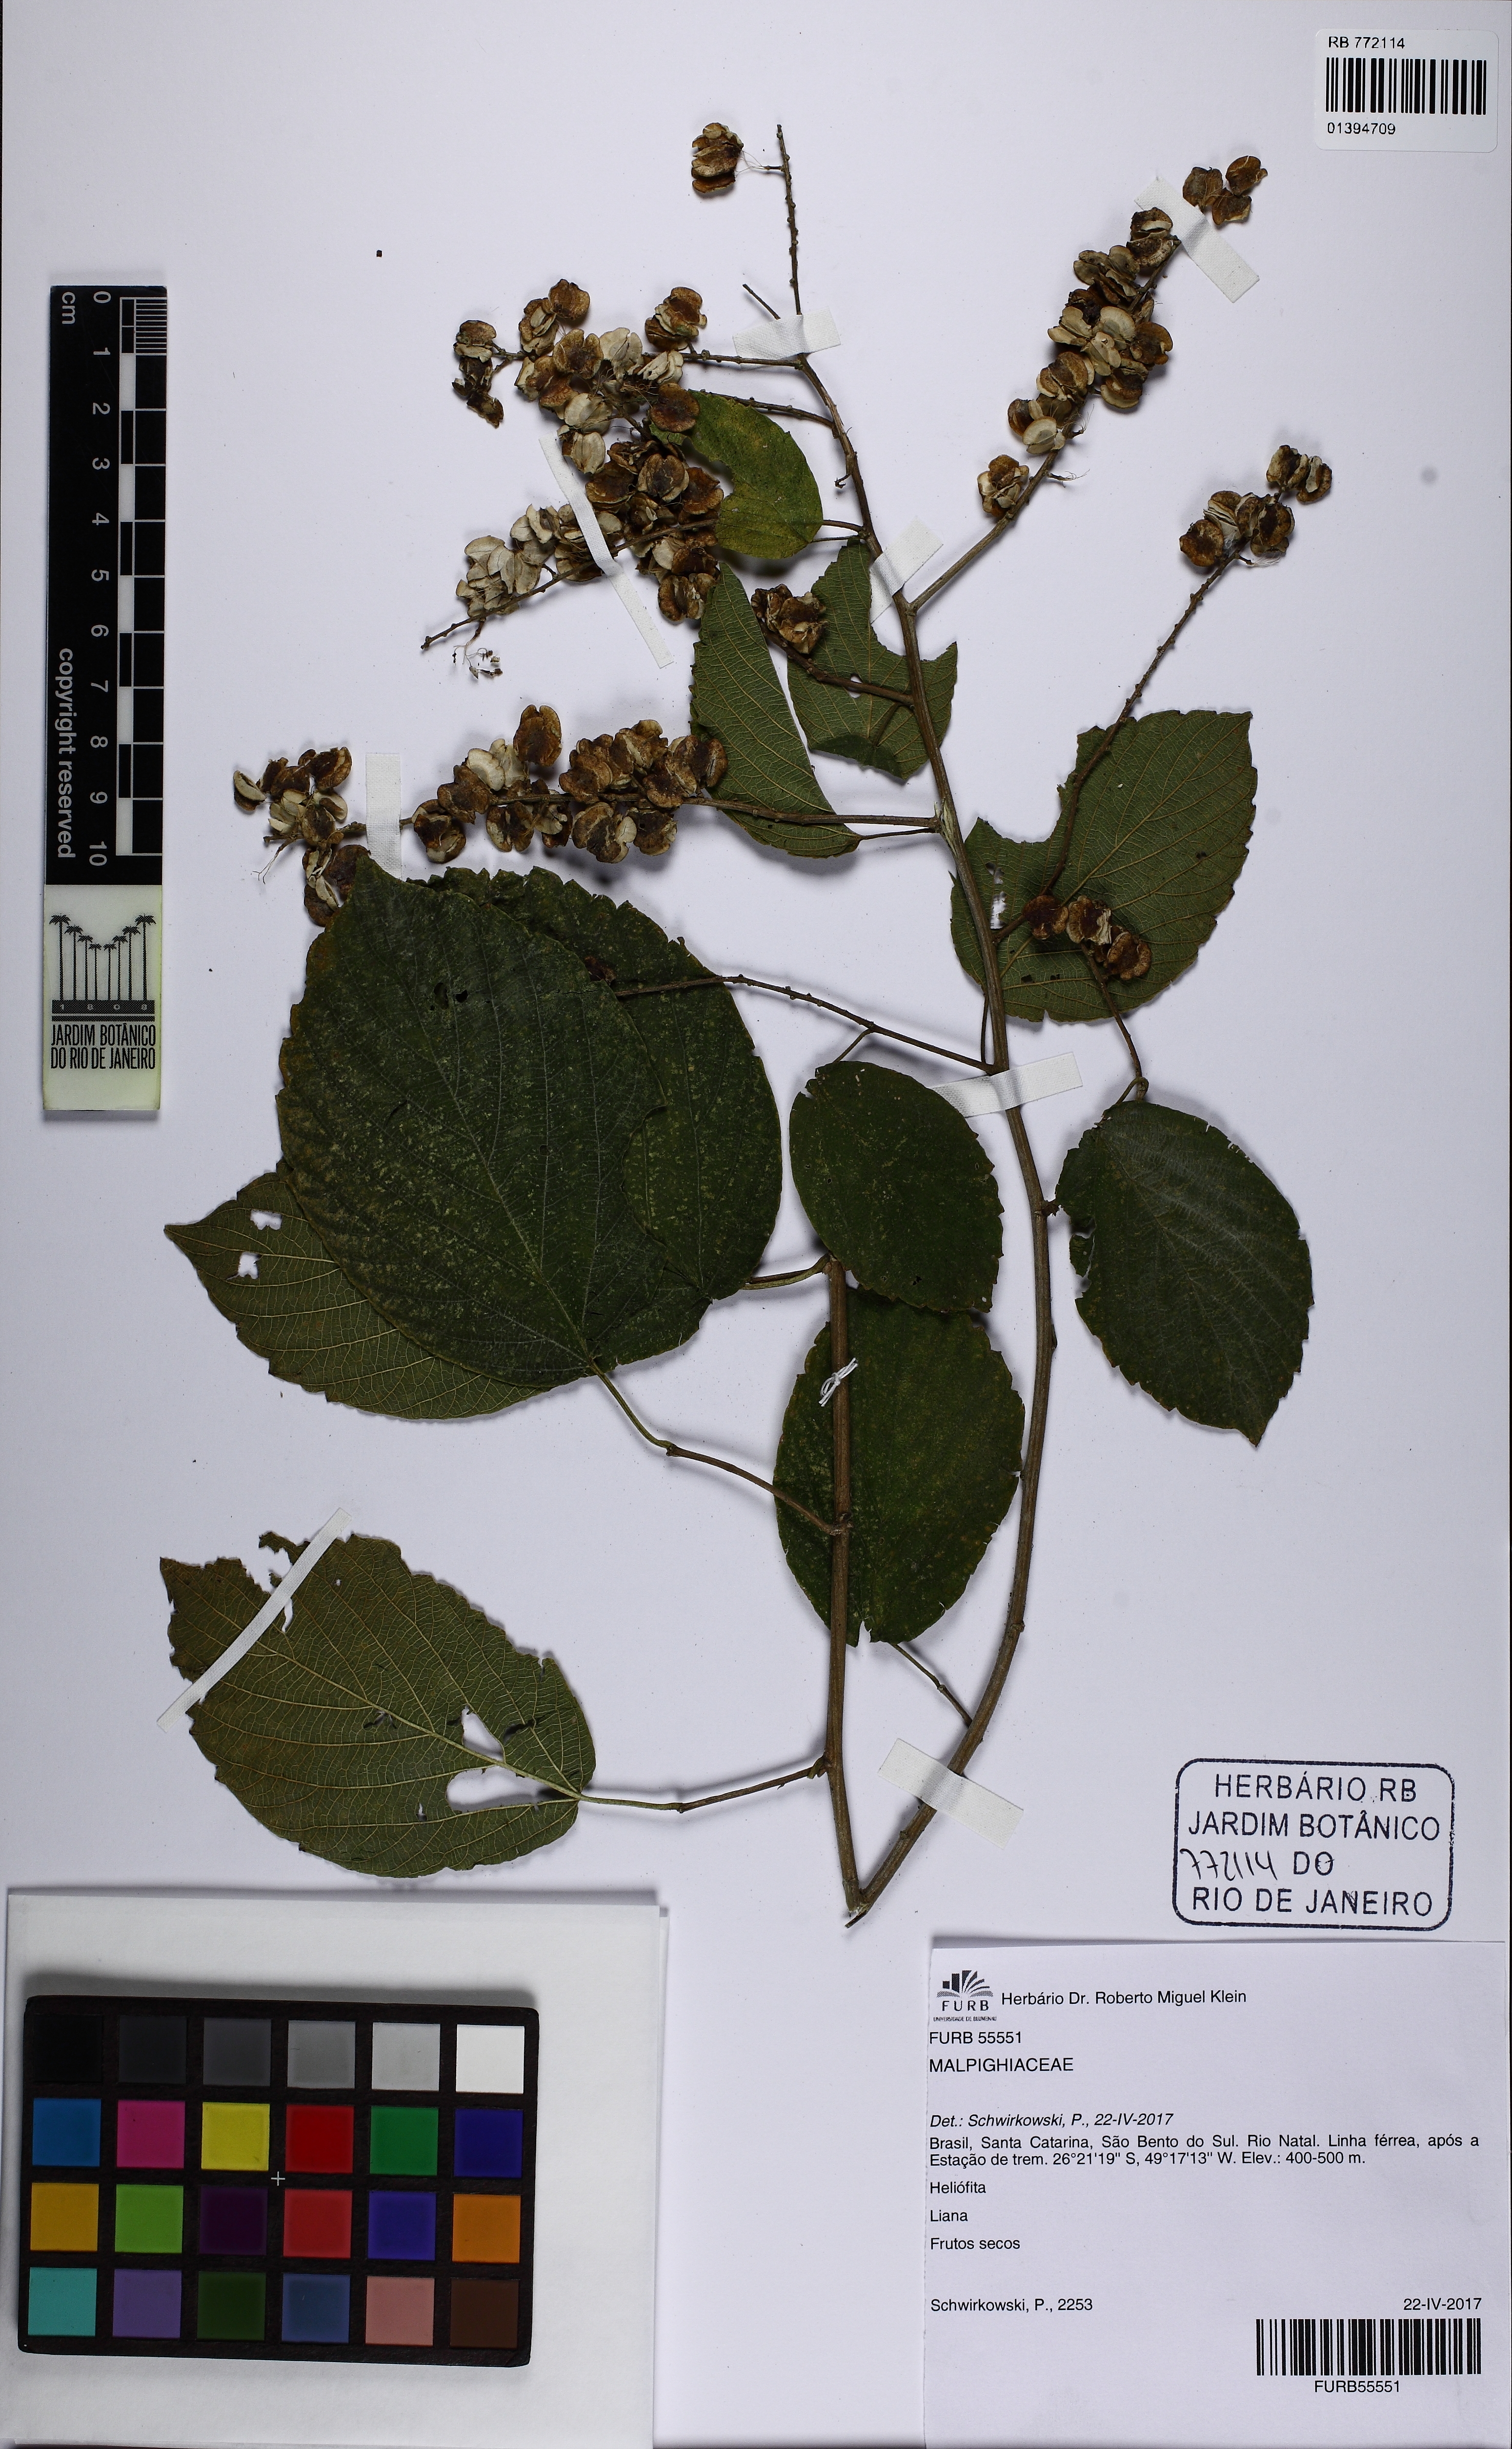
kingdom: Plantae
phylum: Tracheophyta
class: Magnoliopsida
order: Sapindales
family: Sapindaceae
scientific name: Sapindaceae
